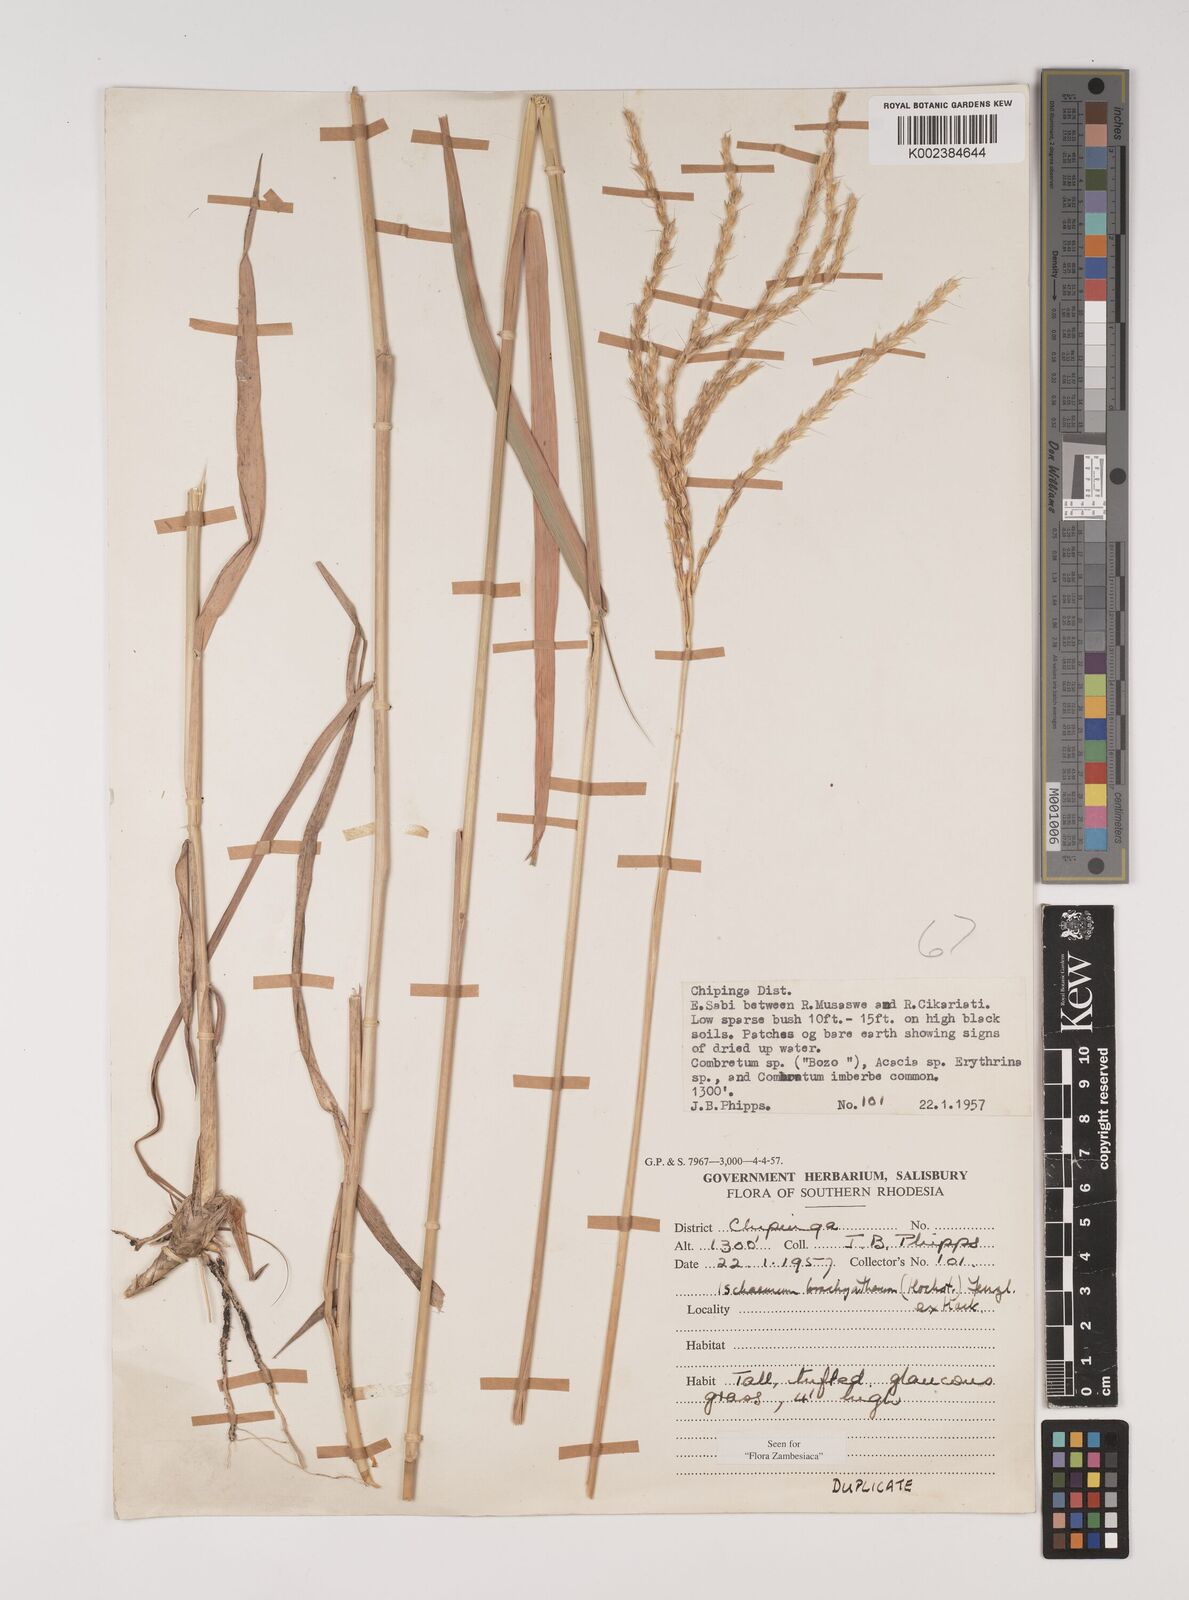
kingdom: Plantae
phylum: Tracheophyta
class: Liliopsida
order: Poales
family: Poaceae
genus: Ischaemum
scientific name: Ischaemum afrum
